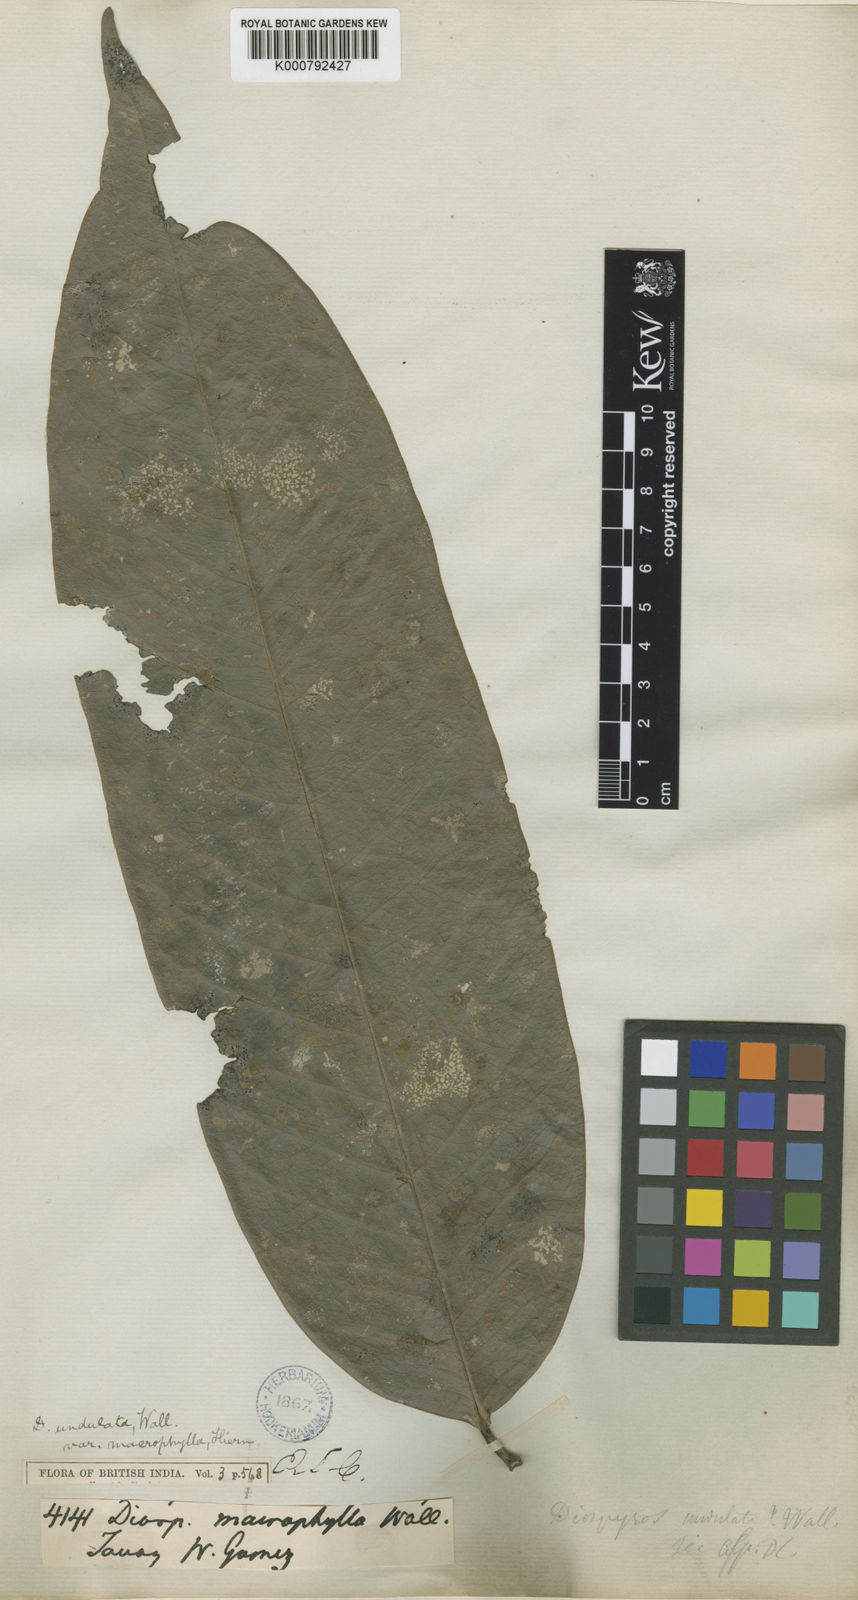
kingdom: Plantae
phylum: Tracheophyta
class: Magnoliopsida
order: Ericales
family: Ebenaceae
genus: Diospyros
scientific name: Diospyros
